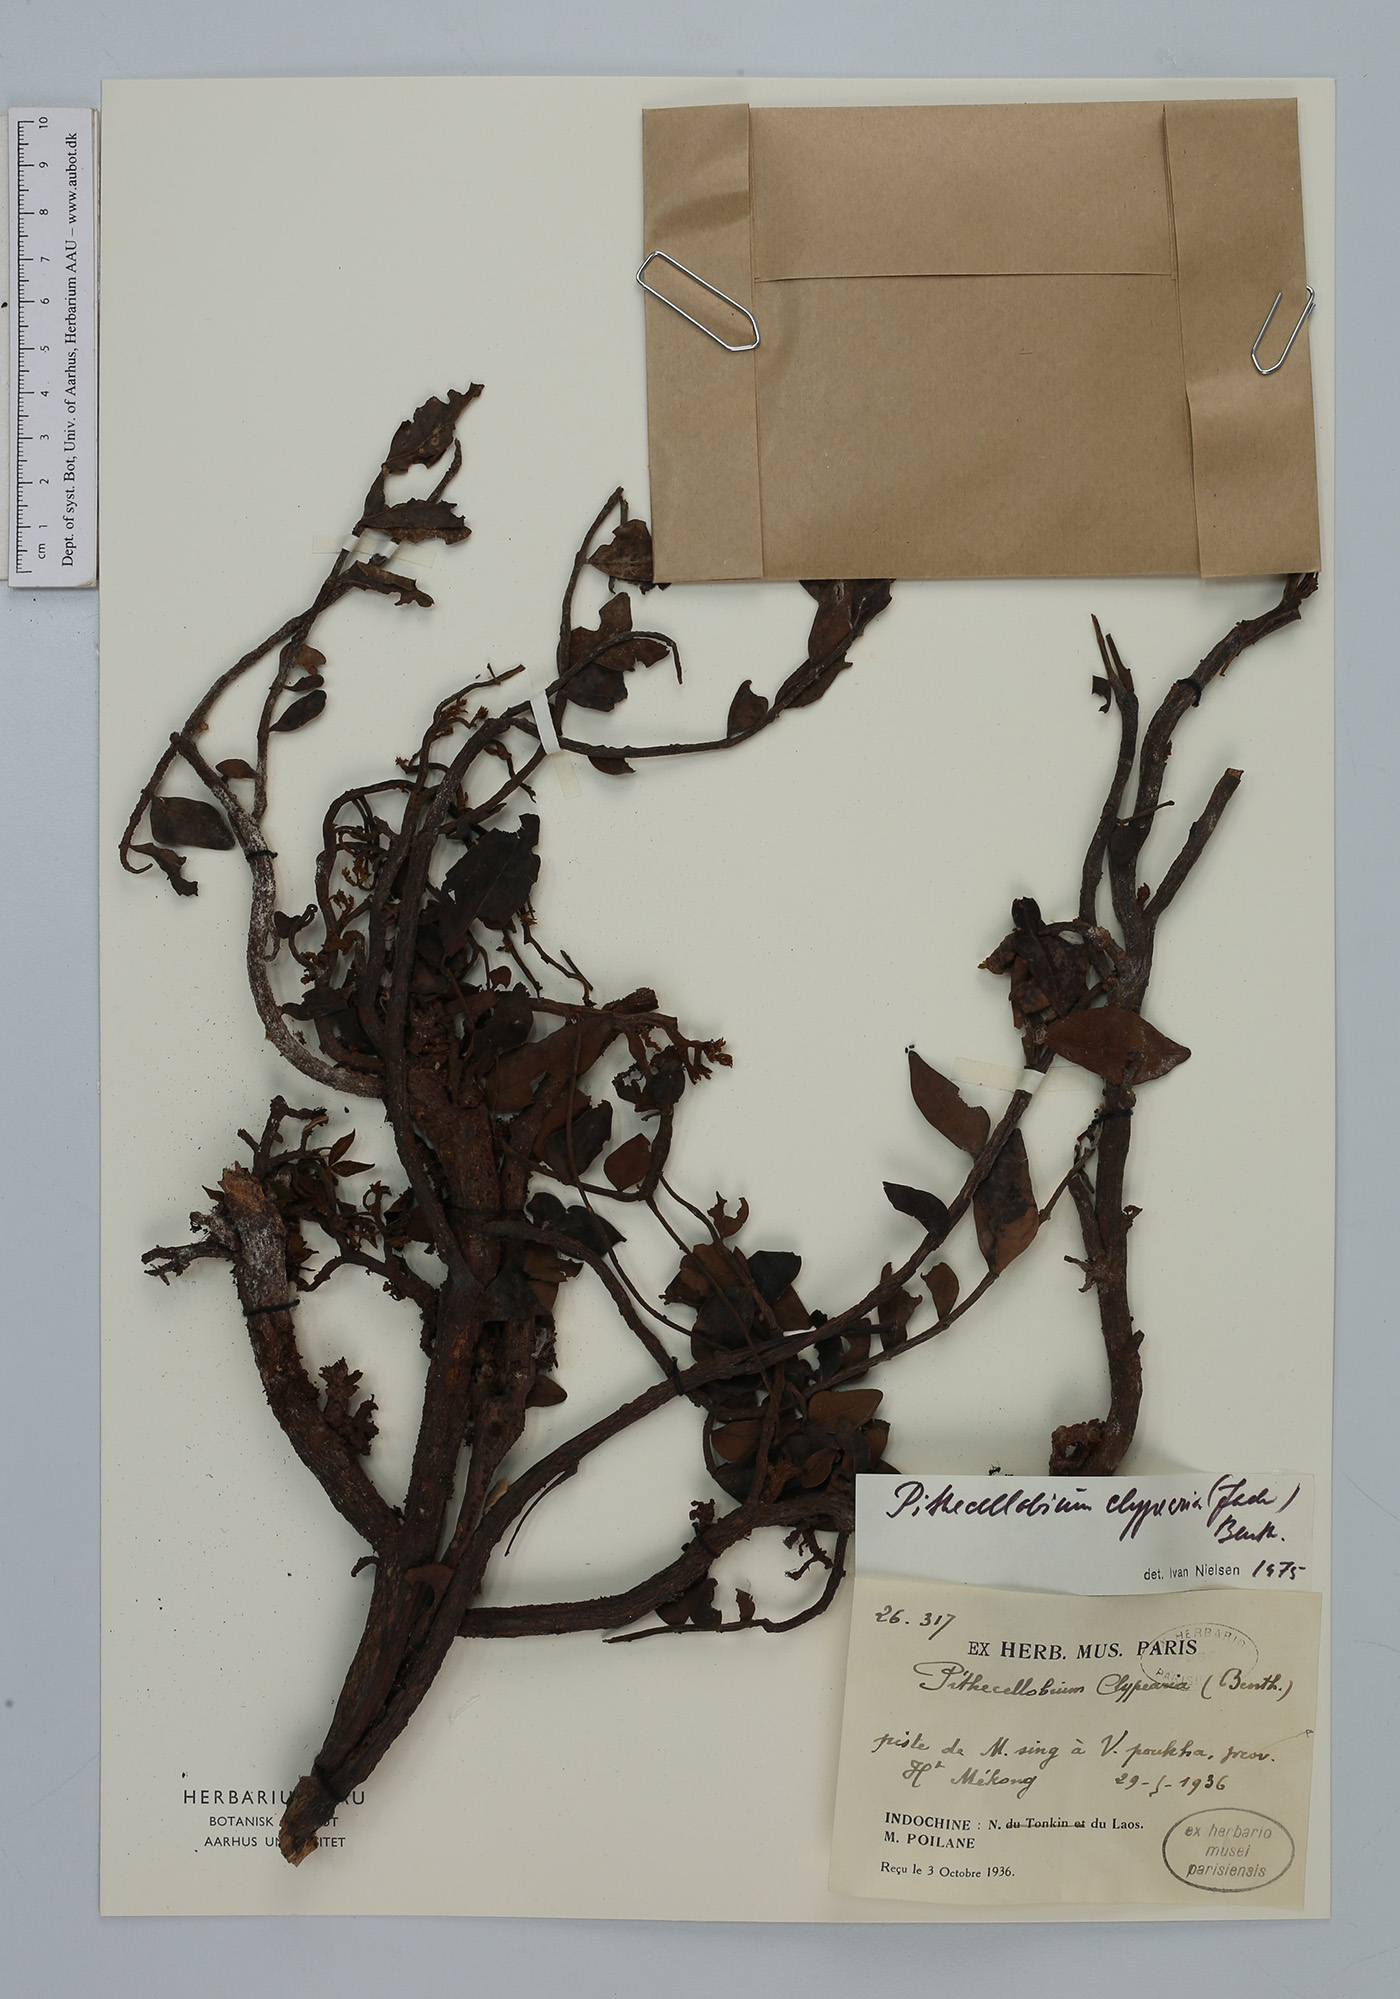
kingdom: Plantae
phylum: Tracheophyta
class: Magnoliopsida
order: Fabales
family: Fabaceae
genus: Archidendron
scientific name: Archidendron clypearia
